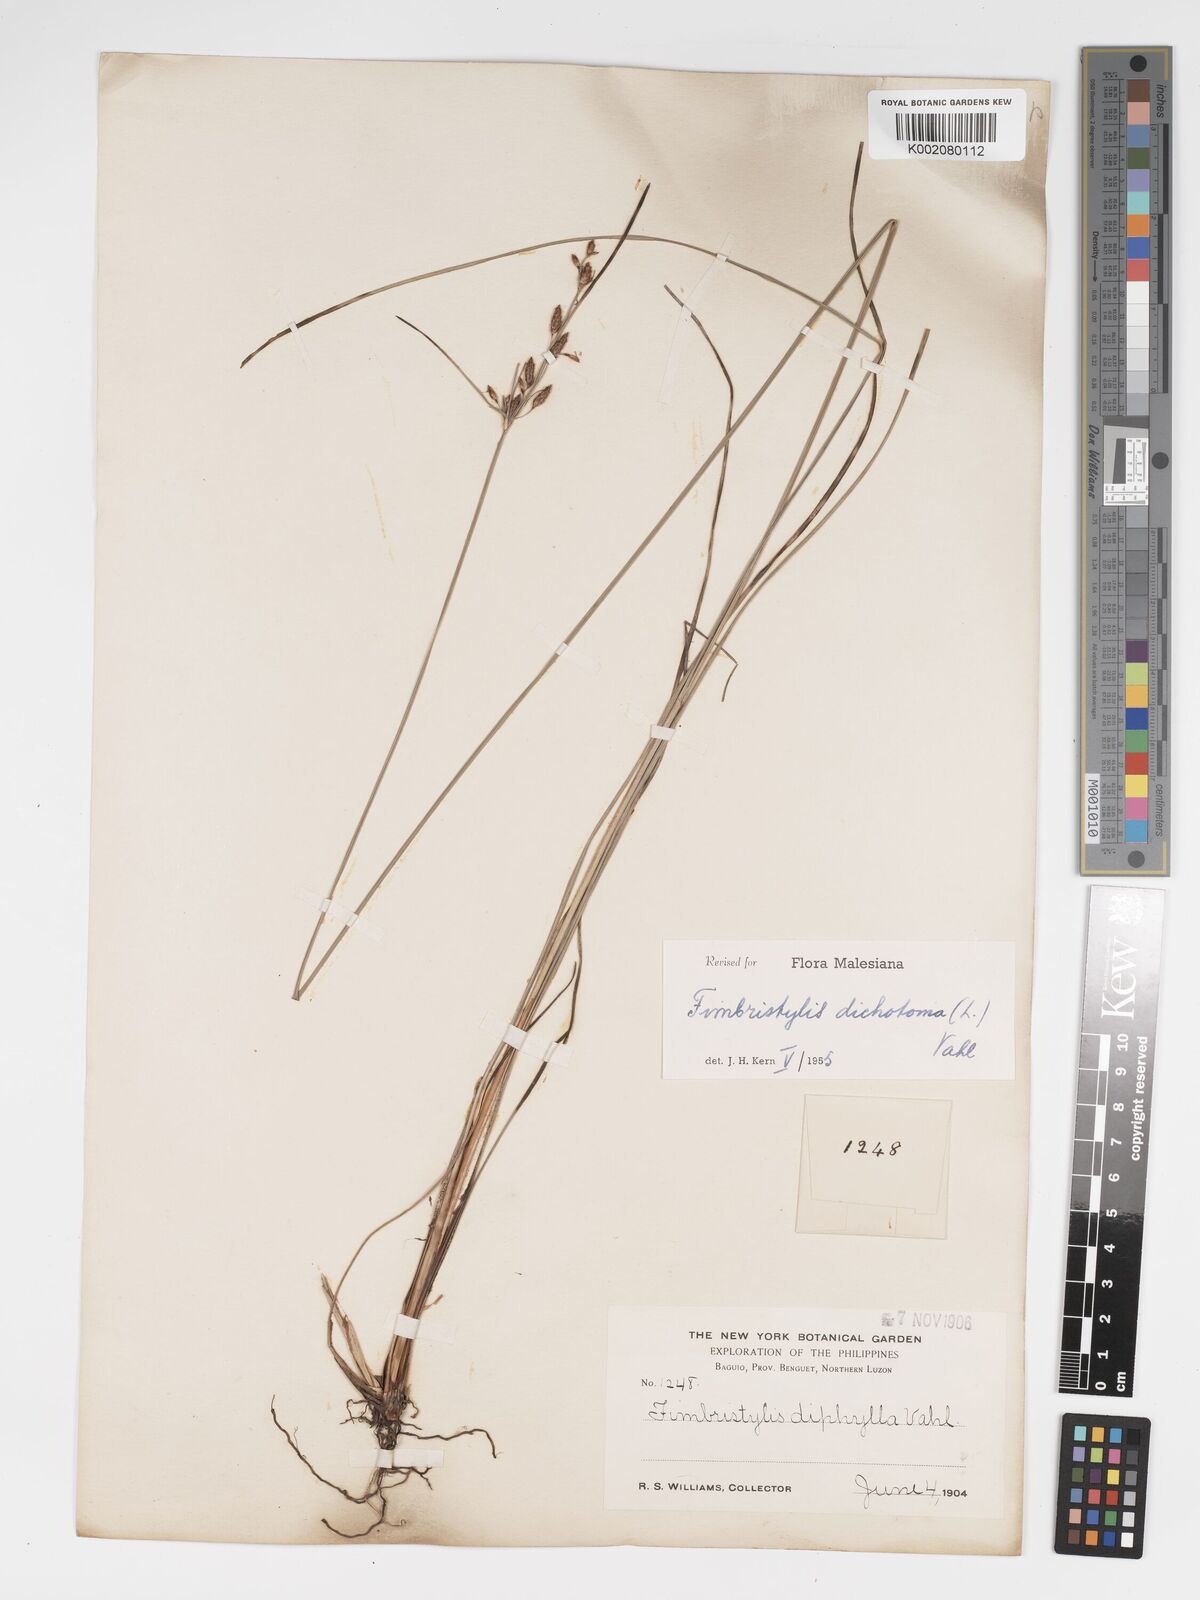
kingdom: Plantae
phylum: Tracheophyta
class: Liliopsida
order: Poales
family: Cyperaceae
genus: Fimbristylis
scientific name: Fimbristylis dichotoma
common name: Forked fimbry
